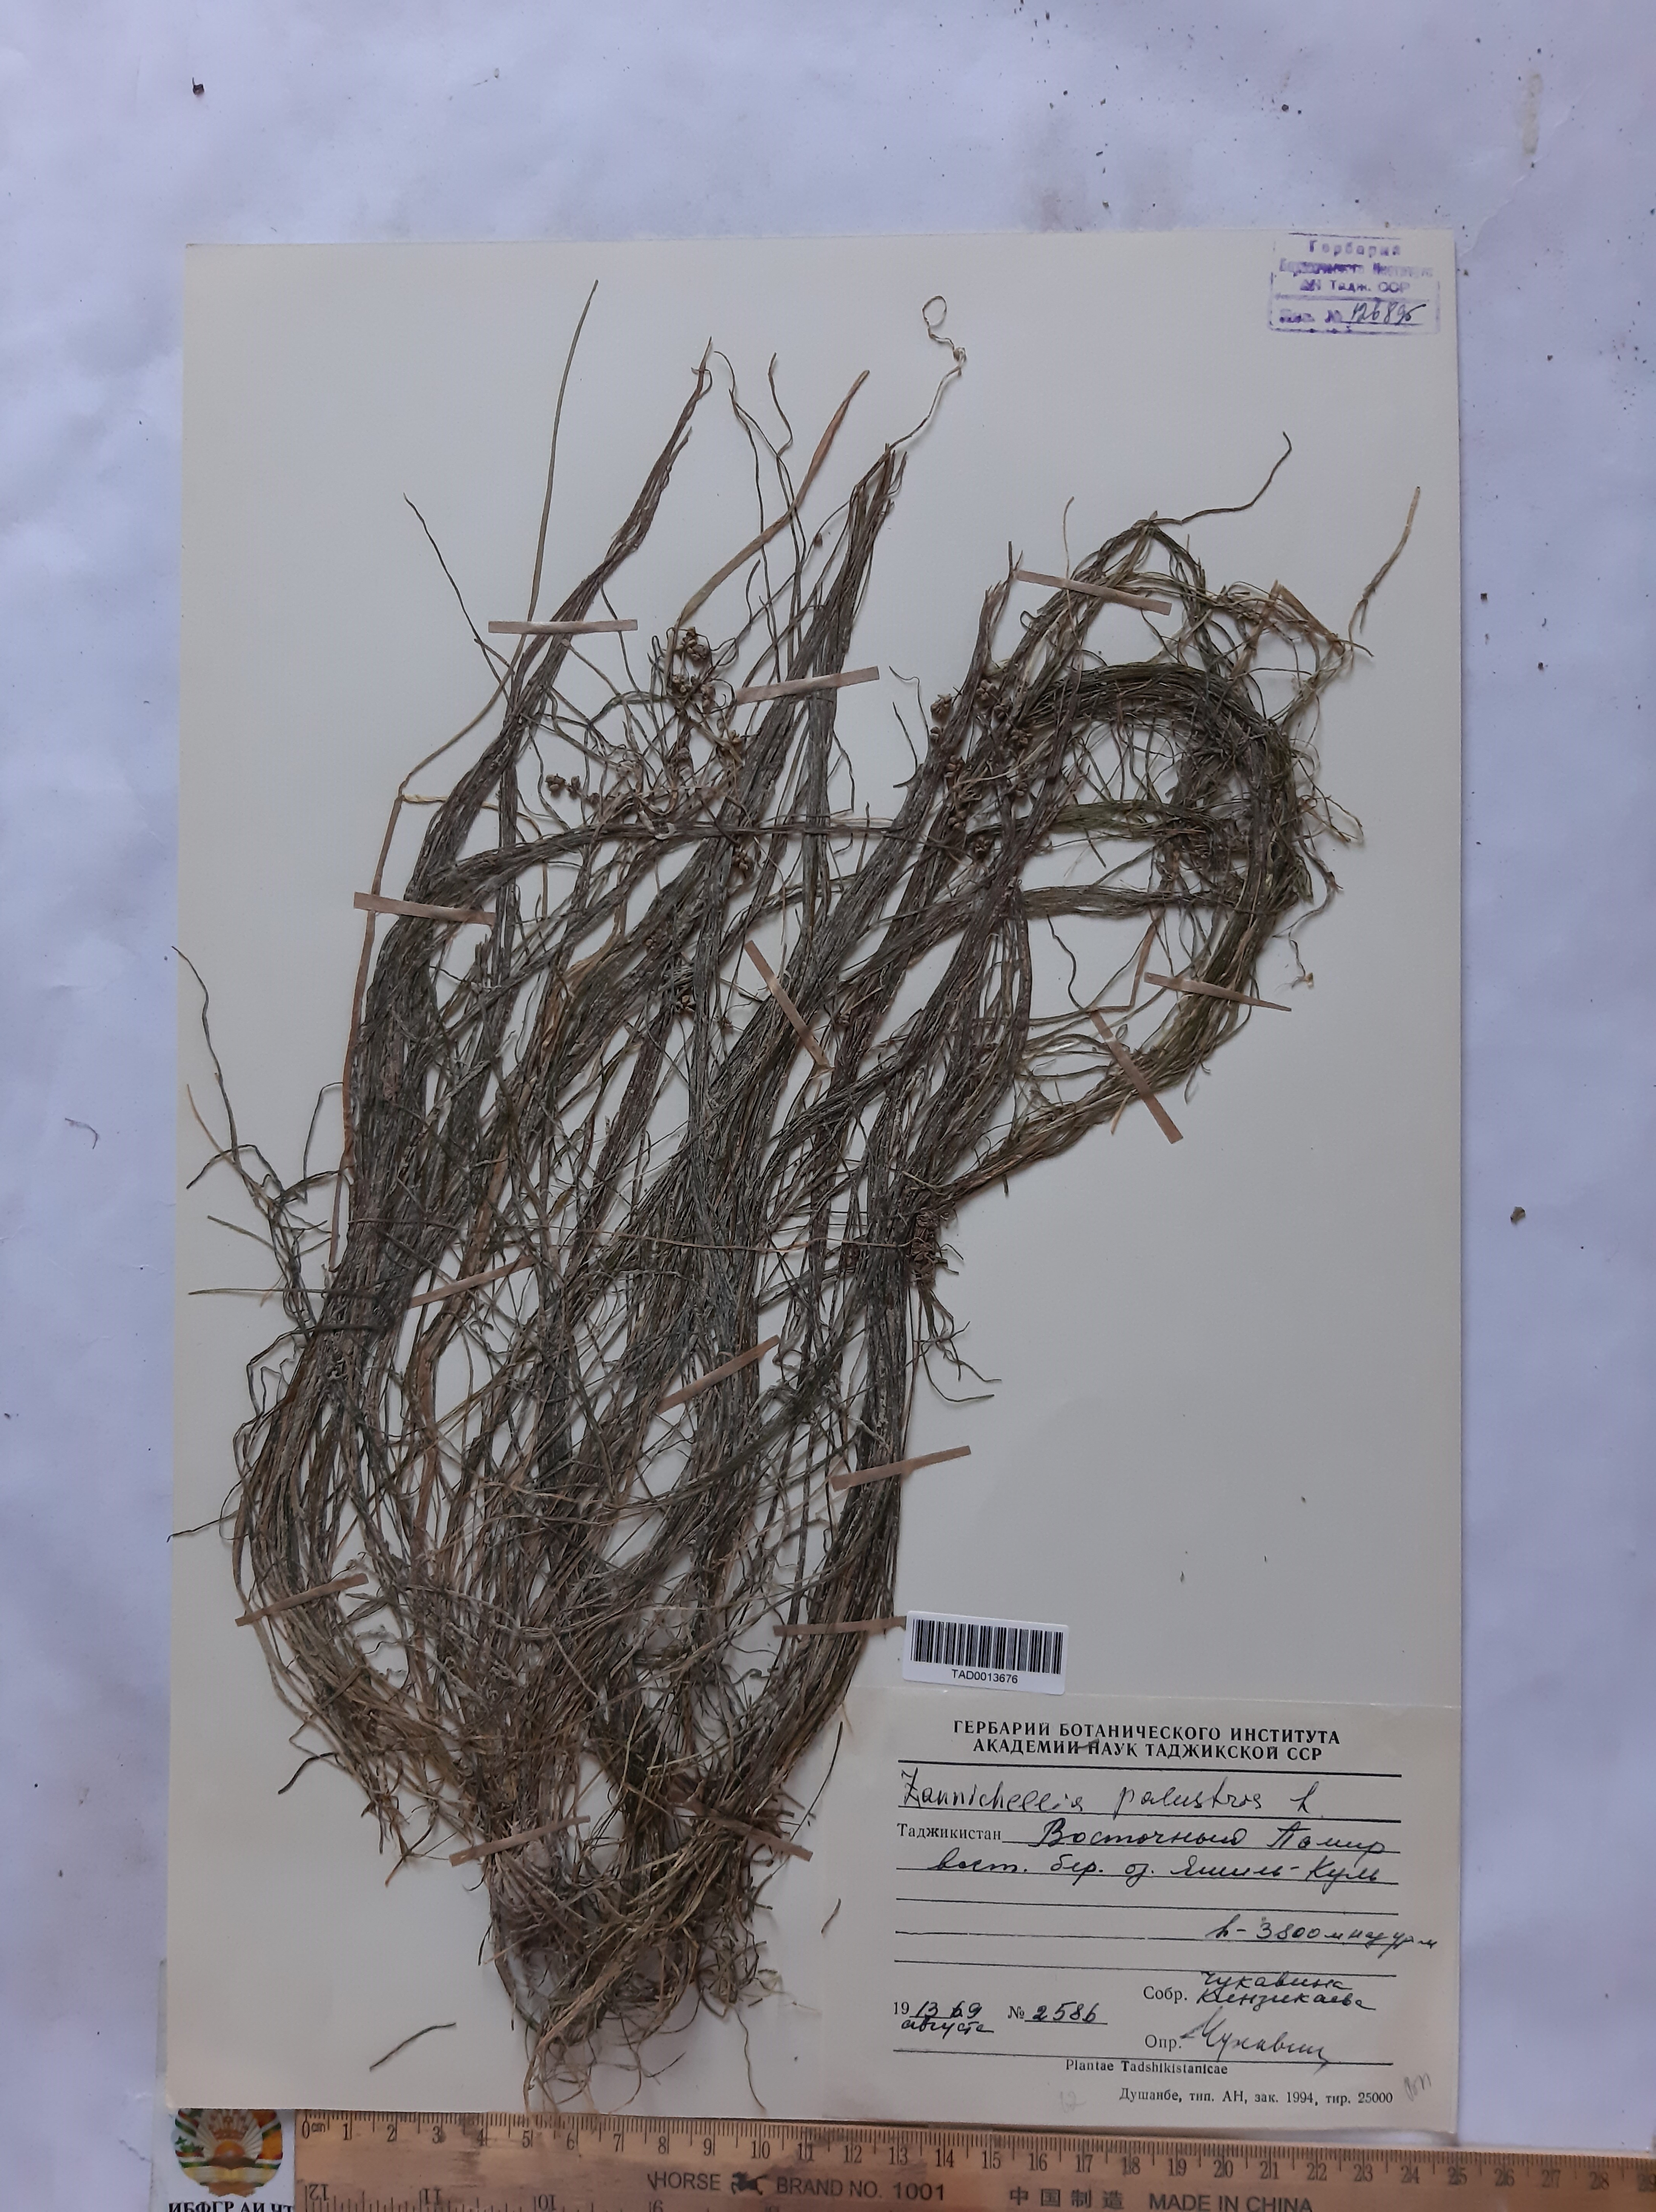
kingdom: Plantae
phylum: Tracheophyta
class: Liliopsida
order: Alismatales
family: Potamogetonaceae
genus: Zannichellia
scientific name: Zannichellia palustris
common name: Horned pondweed
